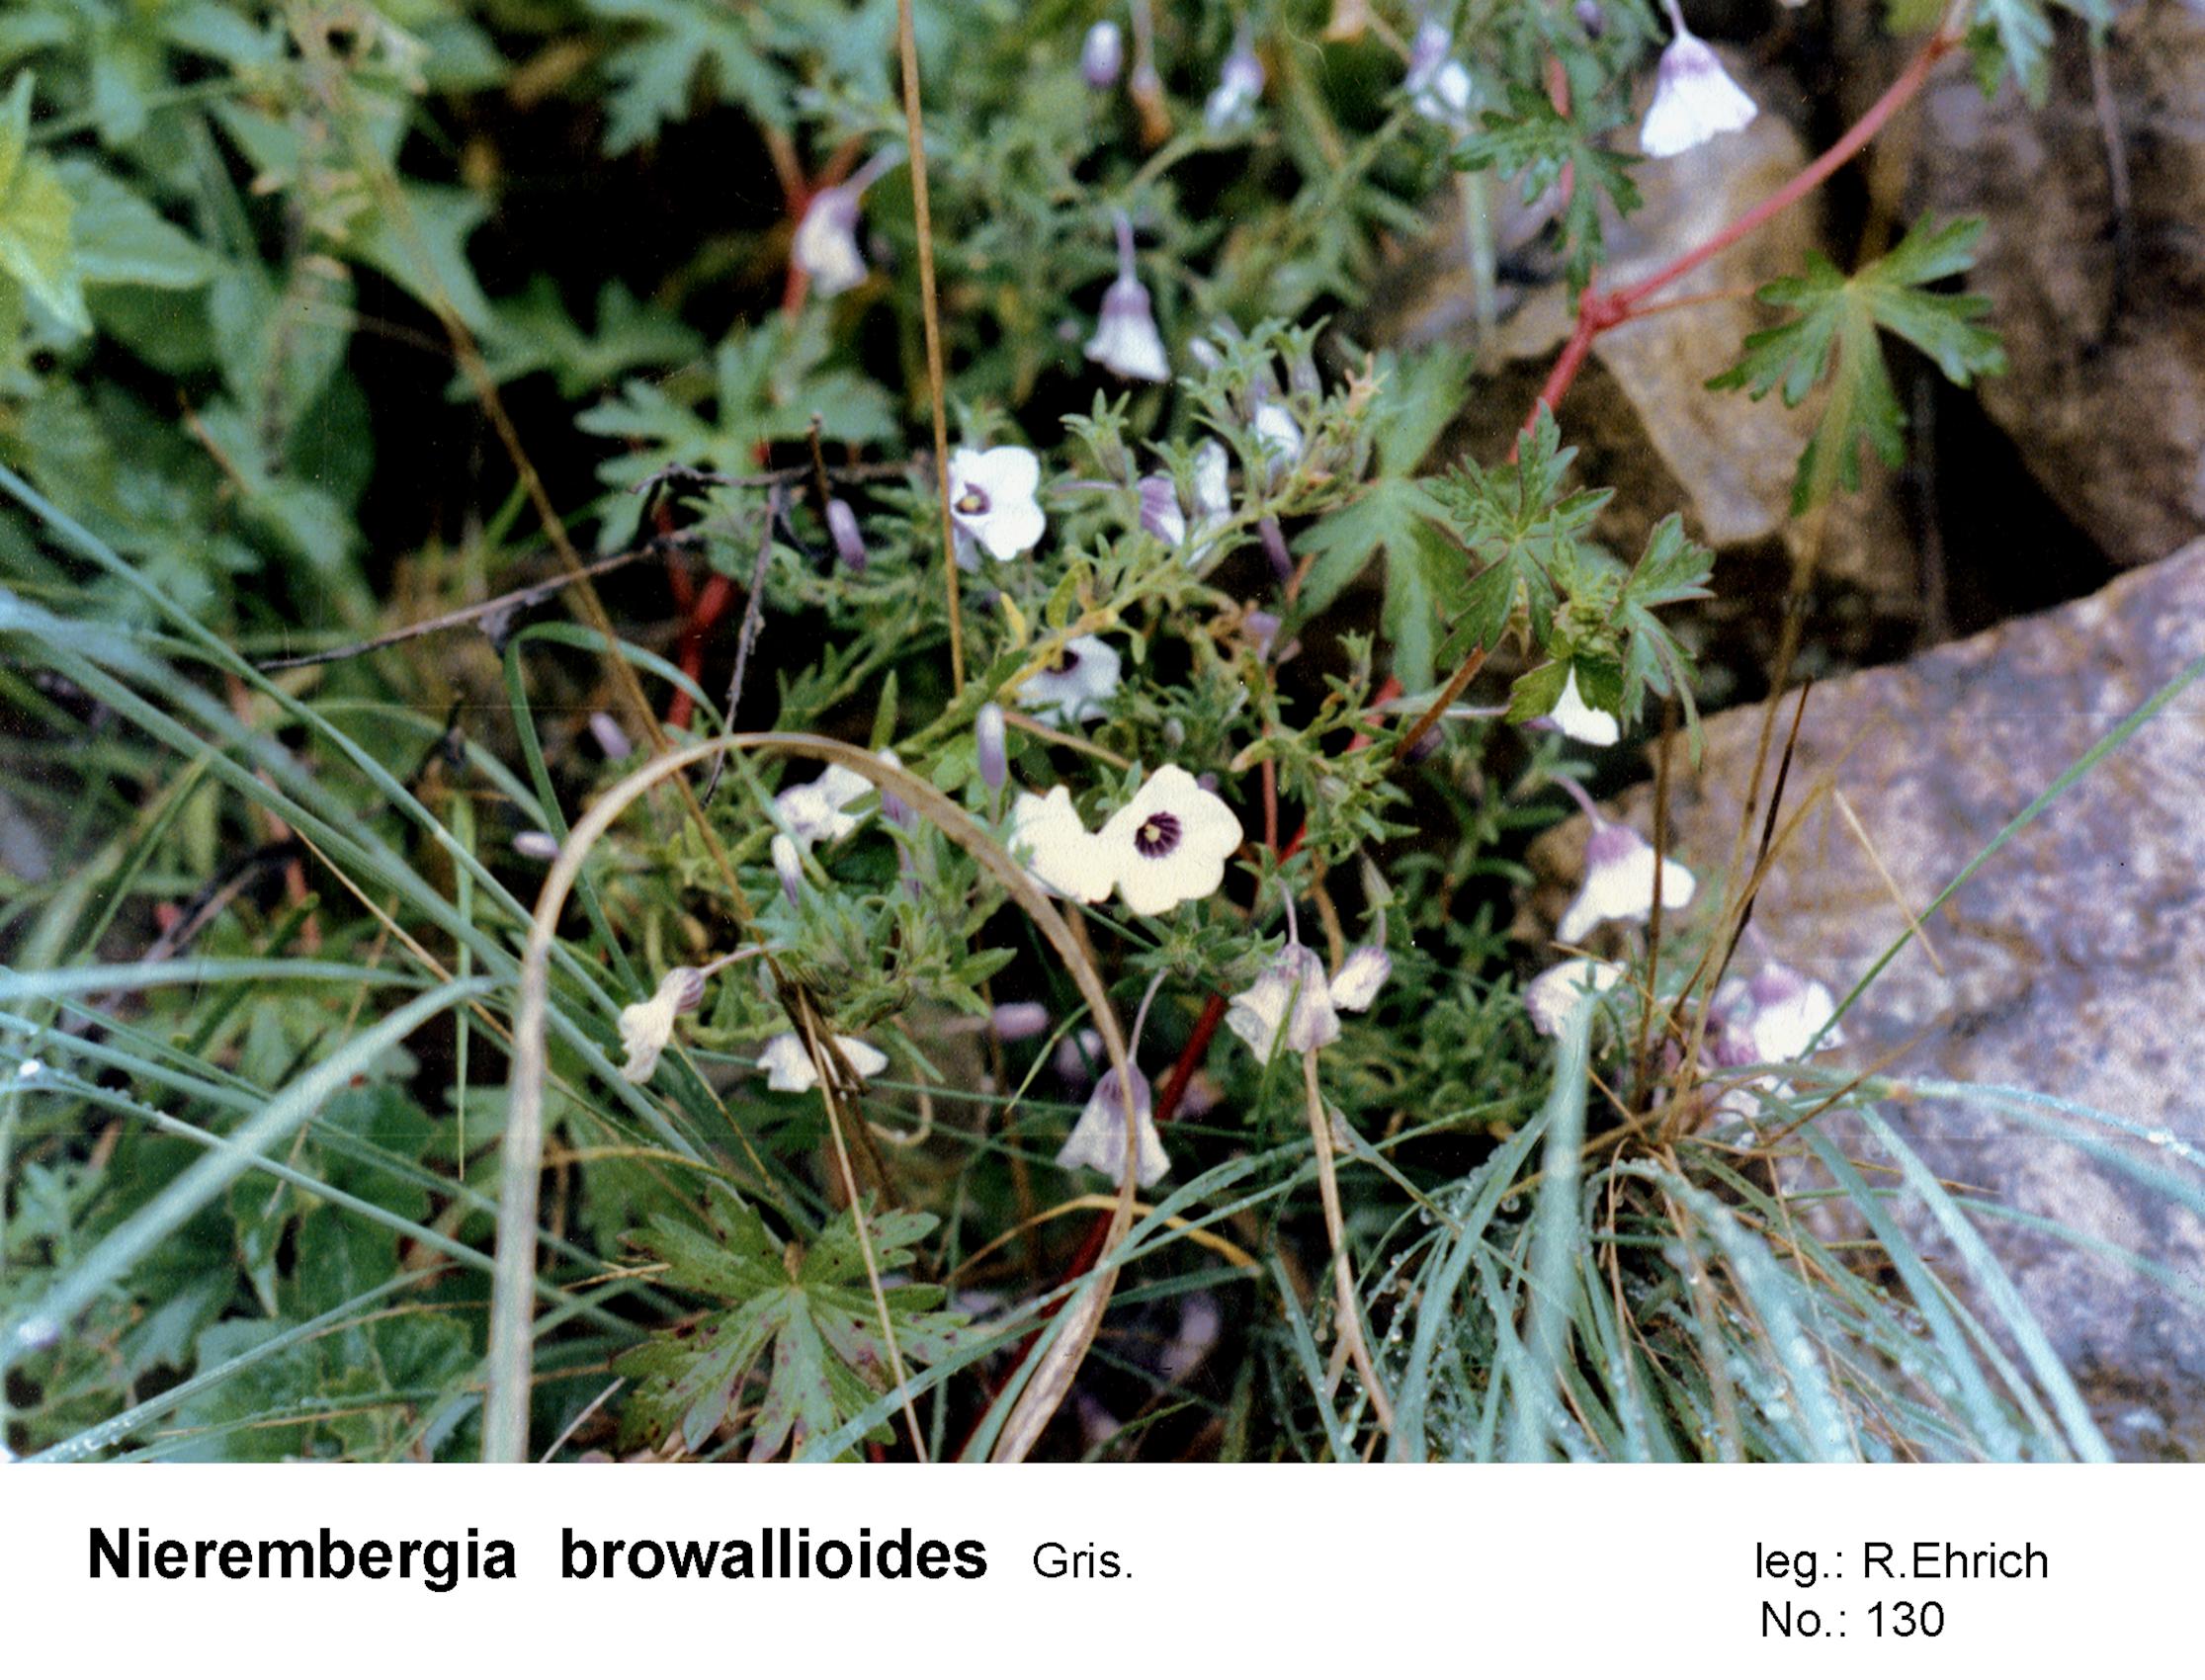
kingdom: Plantae
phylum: Tracheophyta
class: Magnoliopsida
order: Solanales
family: Solanaceae
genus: Nierembergia
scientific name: Nierembergia browallioides
